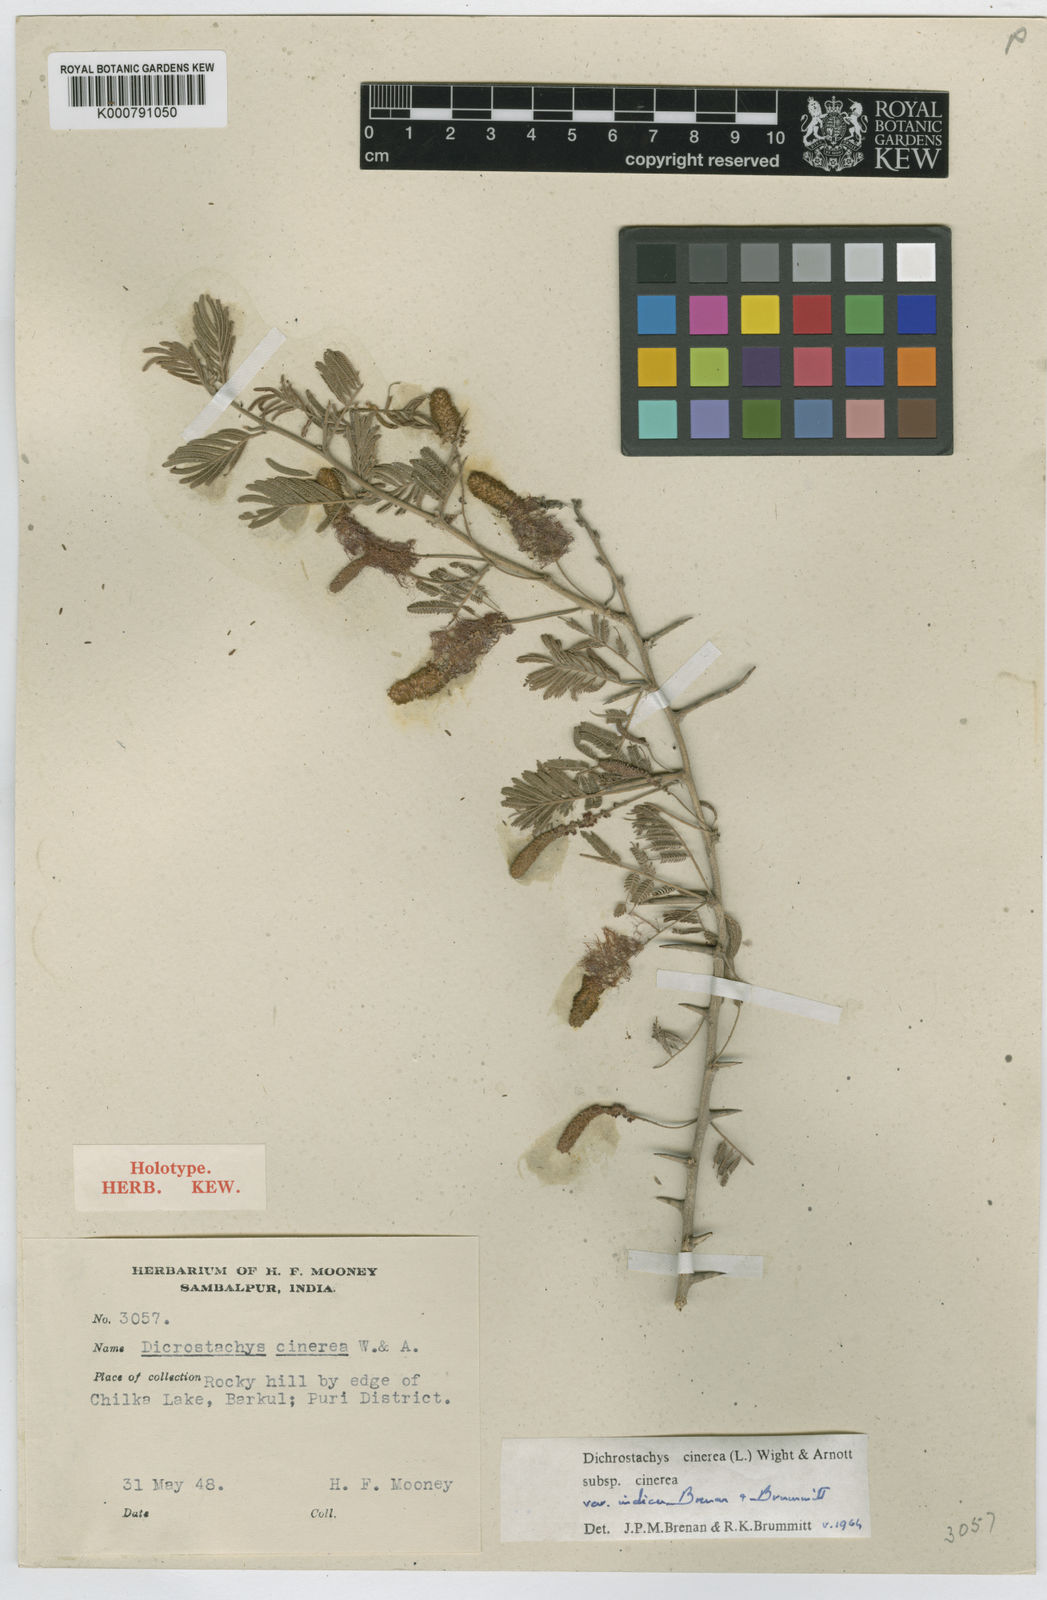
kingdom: Plantae
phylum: Tracheophyta
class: Magnoliopsida
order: Fabales
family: Fabaceae
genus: Dichrostachys
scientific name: Dichrostachys cinerea
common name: Sicklebush
